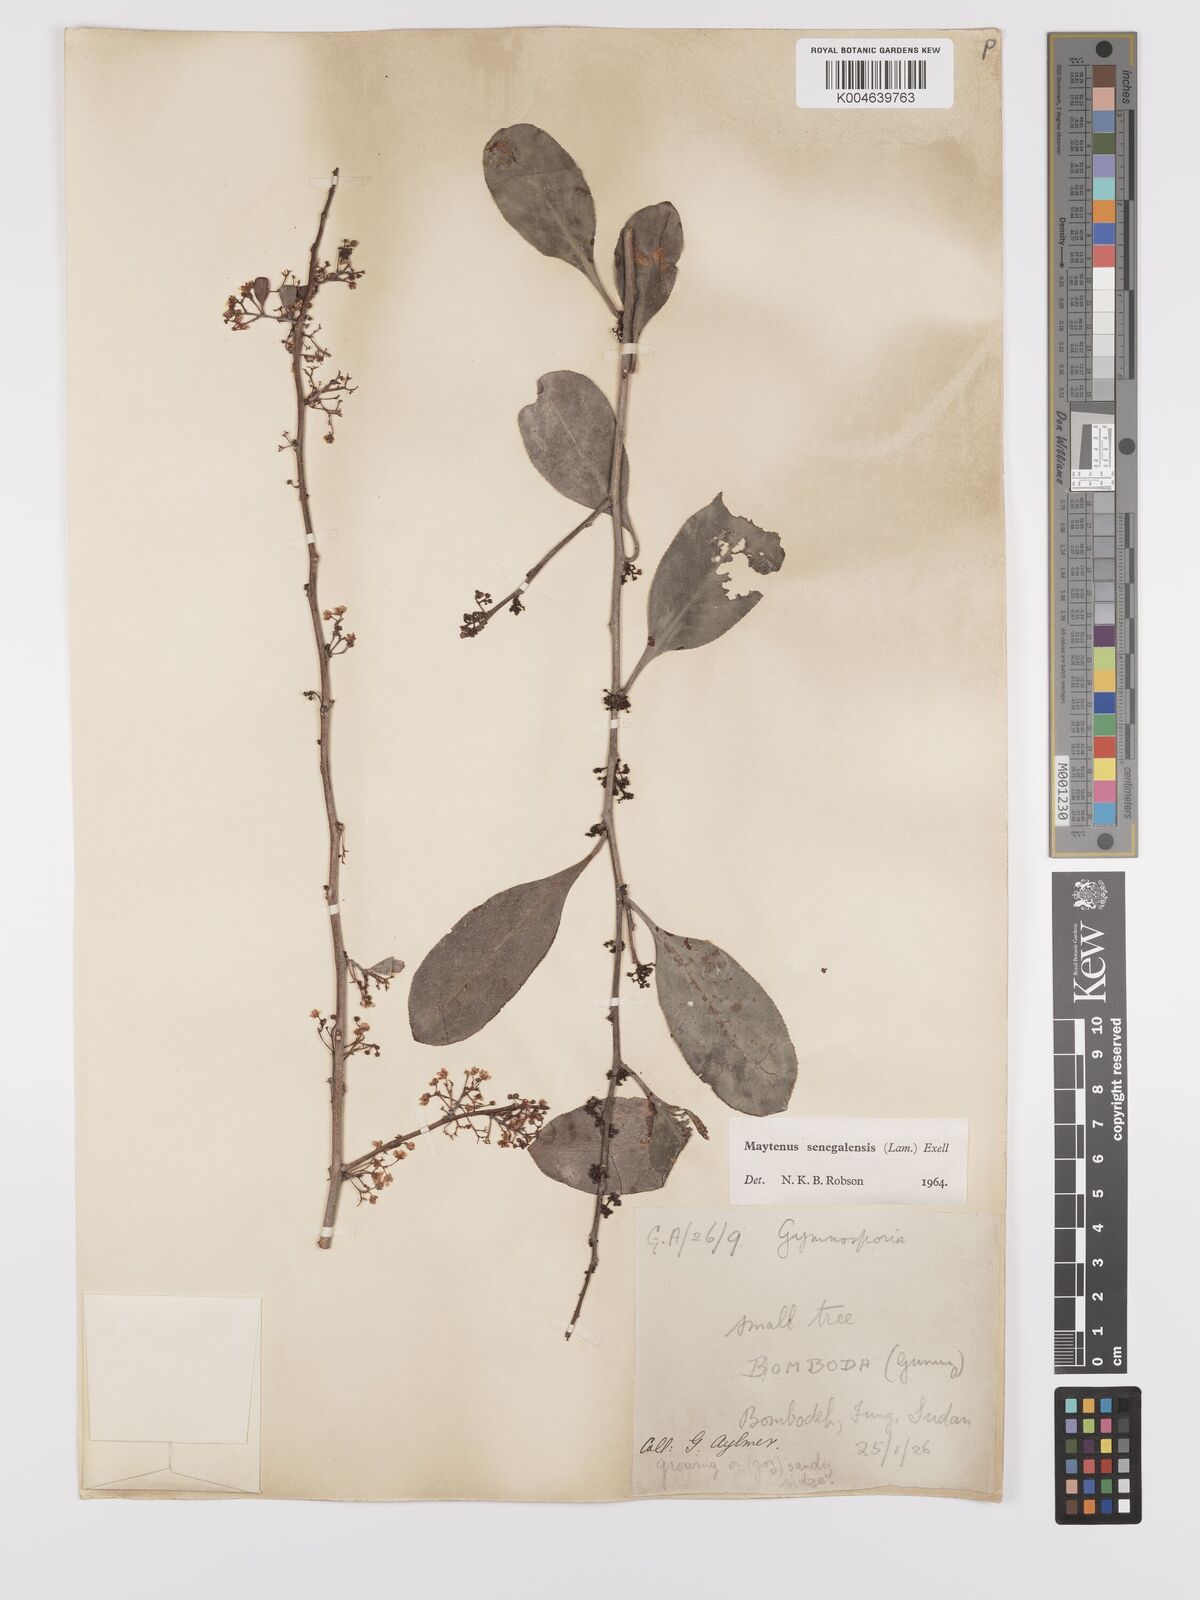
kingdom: Plantae
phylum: Tracheophyta
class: Magnoliopsida
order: Celastrales
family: Celastraceae
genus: Gymnosporia
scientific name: Gymnosporia senegalensis
